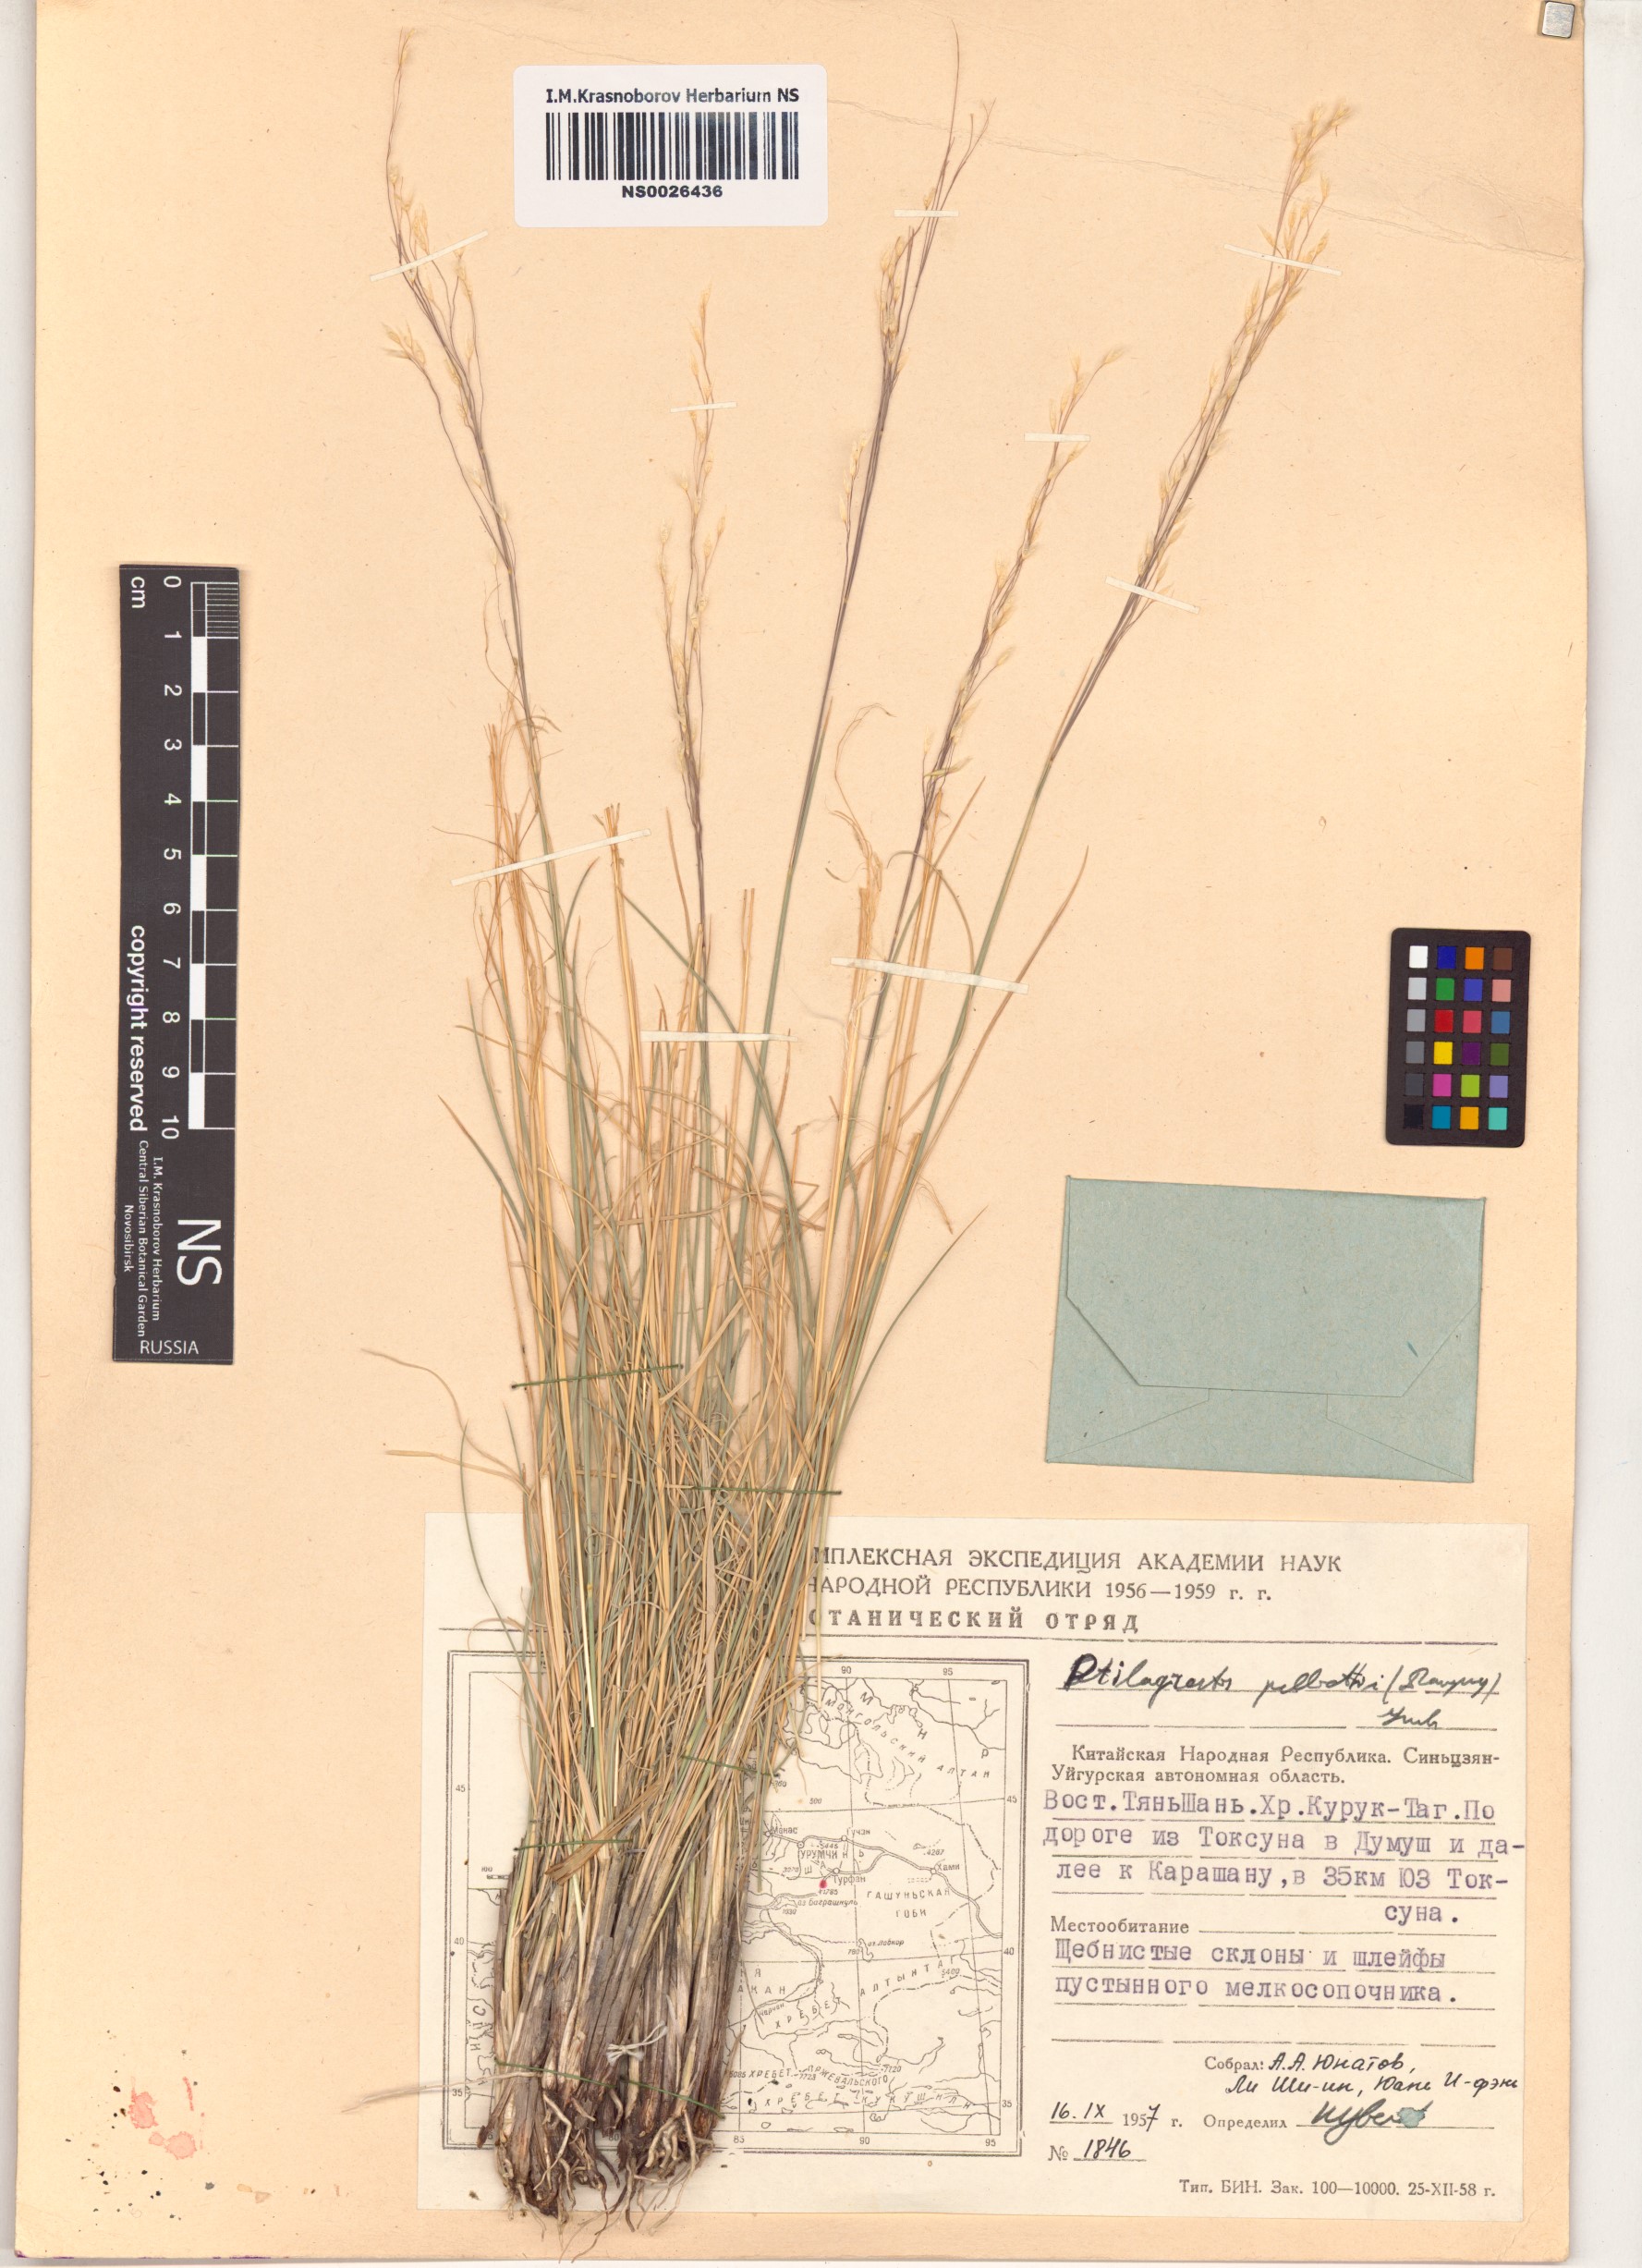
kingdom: Plantae
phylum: Tracheophyta
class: Liliopsida
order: Poales
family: Poaceae
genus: Achnatherum
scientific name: Achnatherum pelliotii
